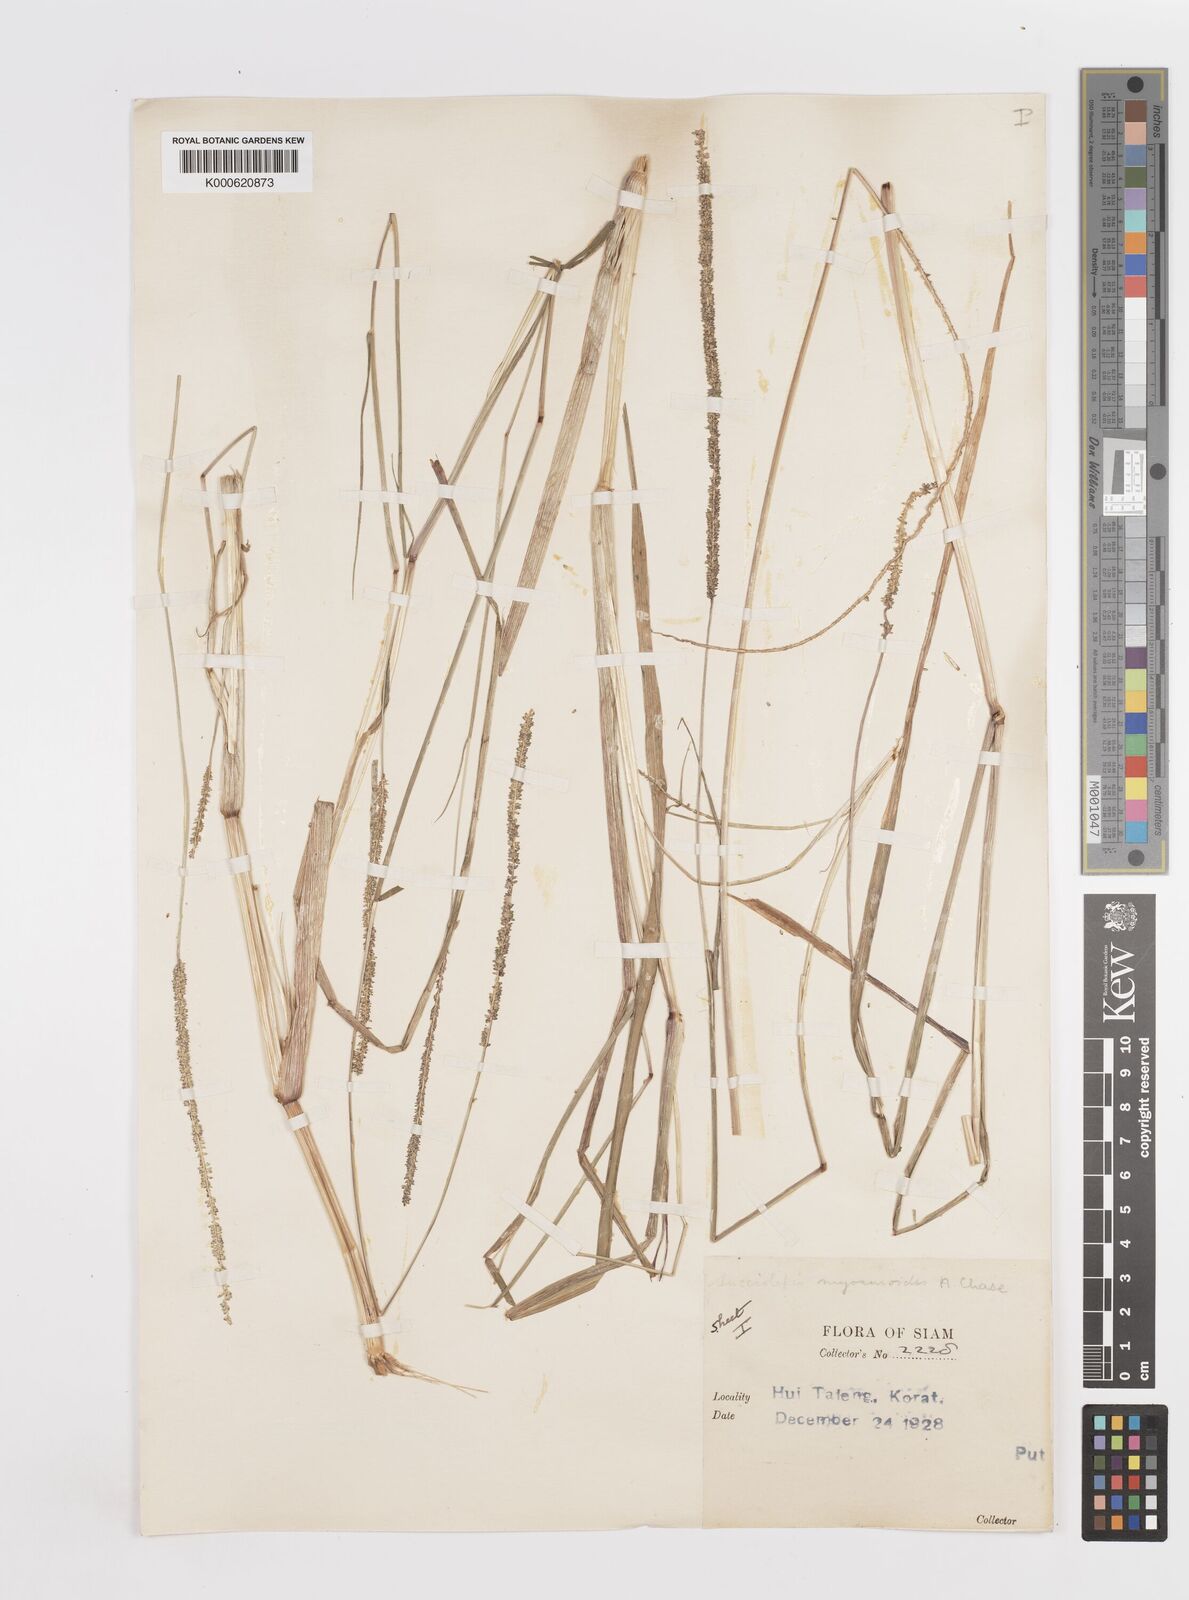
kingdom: Plantae
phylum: Tracheophyta
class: Liliopsida
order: Poales
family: Poaceae
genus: Sacciolepis
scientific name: Sacciolepis myosuroides
